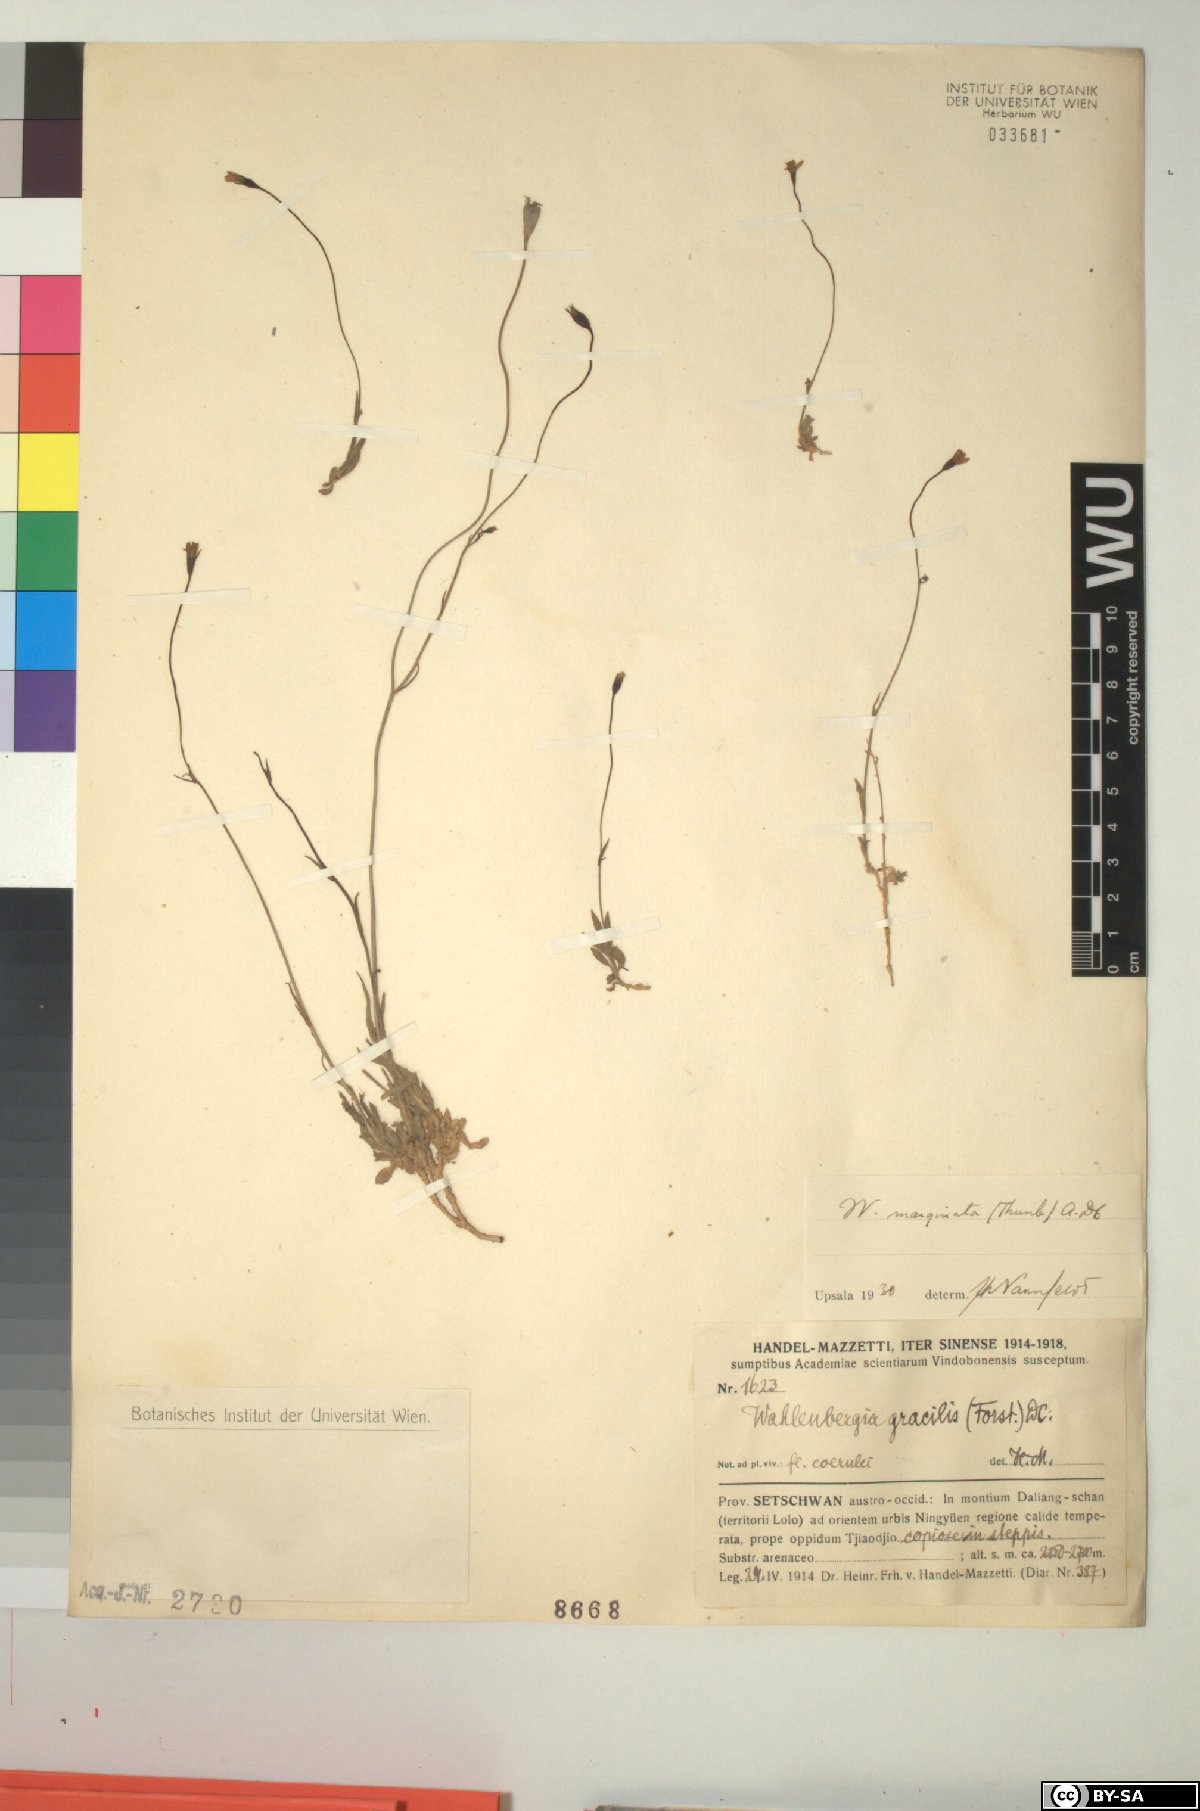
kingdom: Plantae
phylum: Tracheophyta
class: Magnoliopsida
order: Asterales
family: Campanulaceae
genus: Wahlenbergia
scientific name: Wahlenbergia marginata
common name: Southern rockbell
